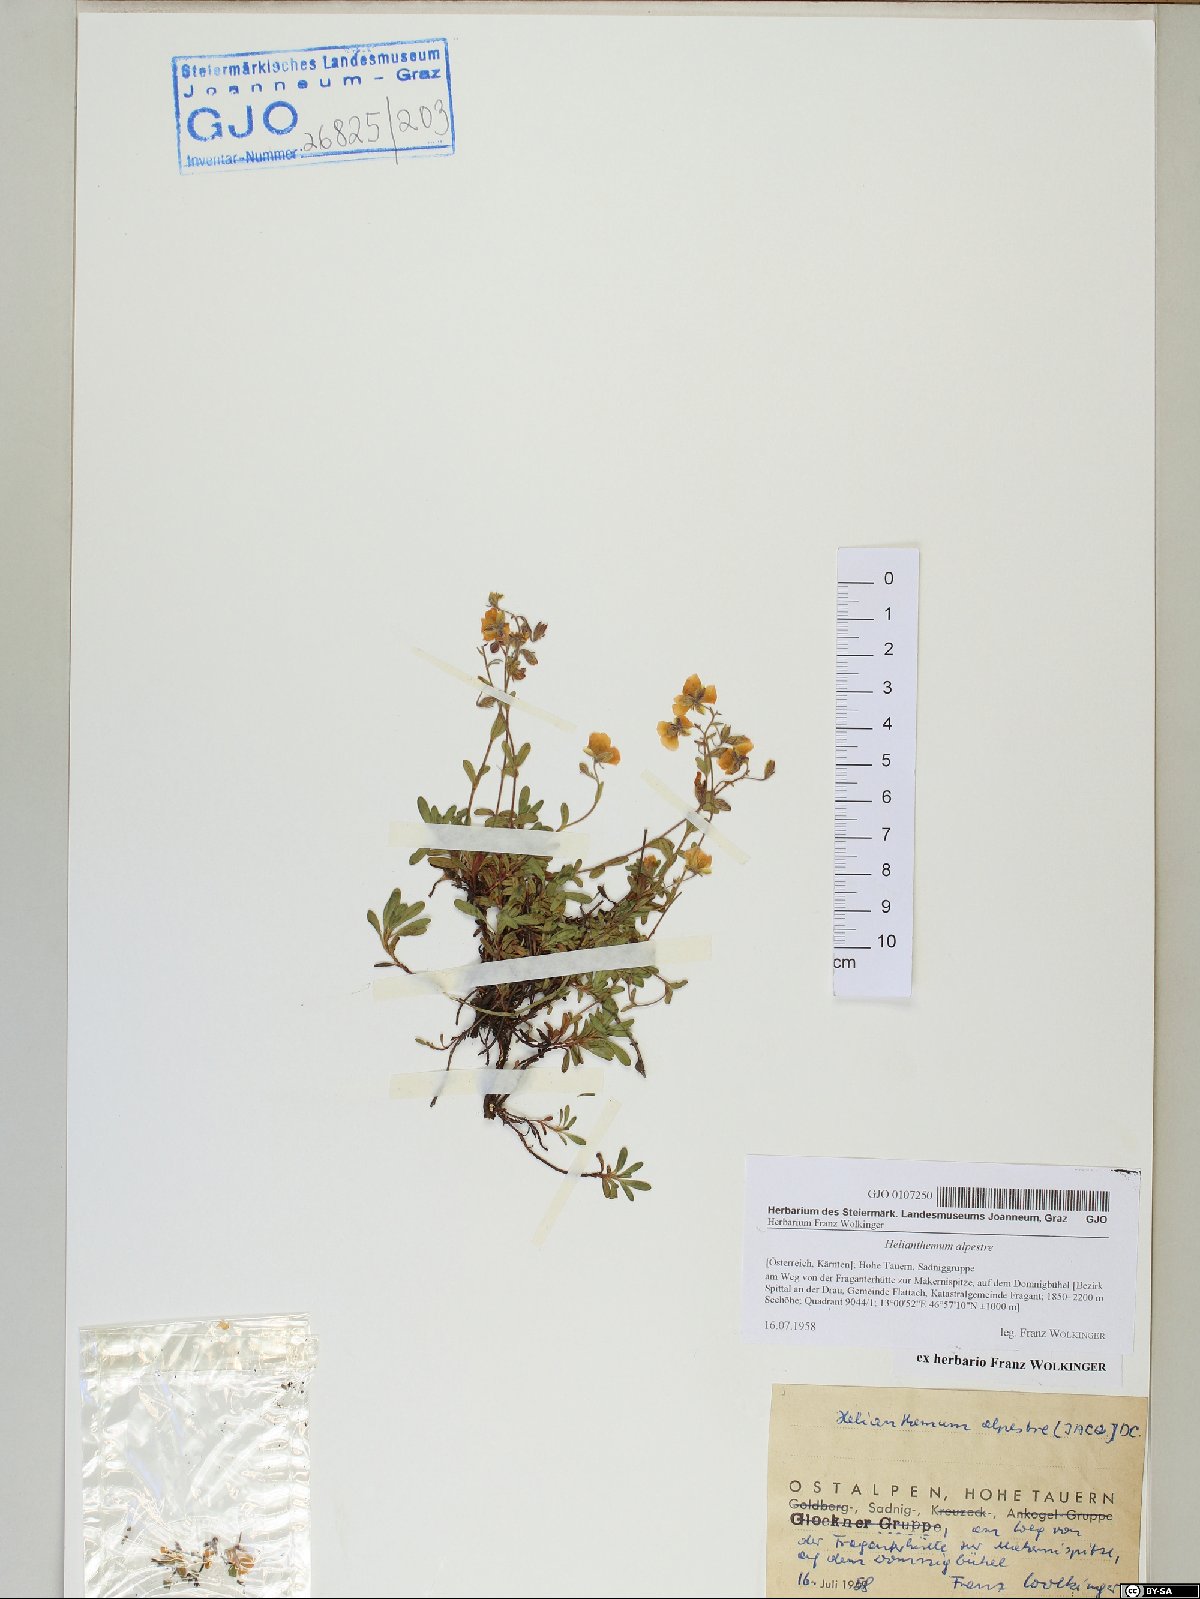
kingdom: Plantae
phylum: Tracheophyta
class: Magnoliopsida
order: Malvales
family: Cistaceae
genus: Helianthemum
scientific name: Helianthemum alpestre
